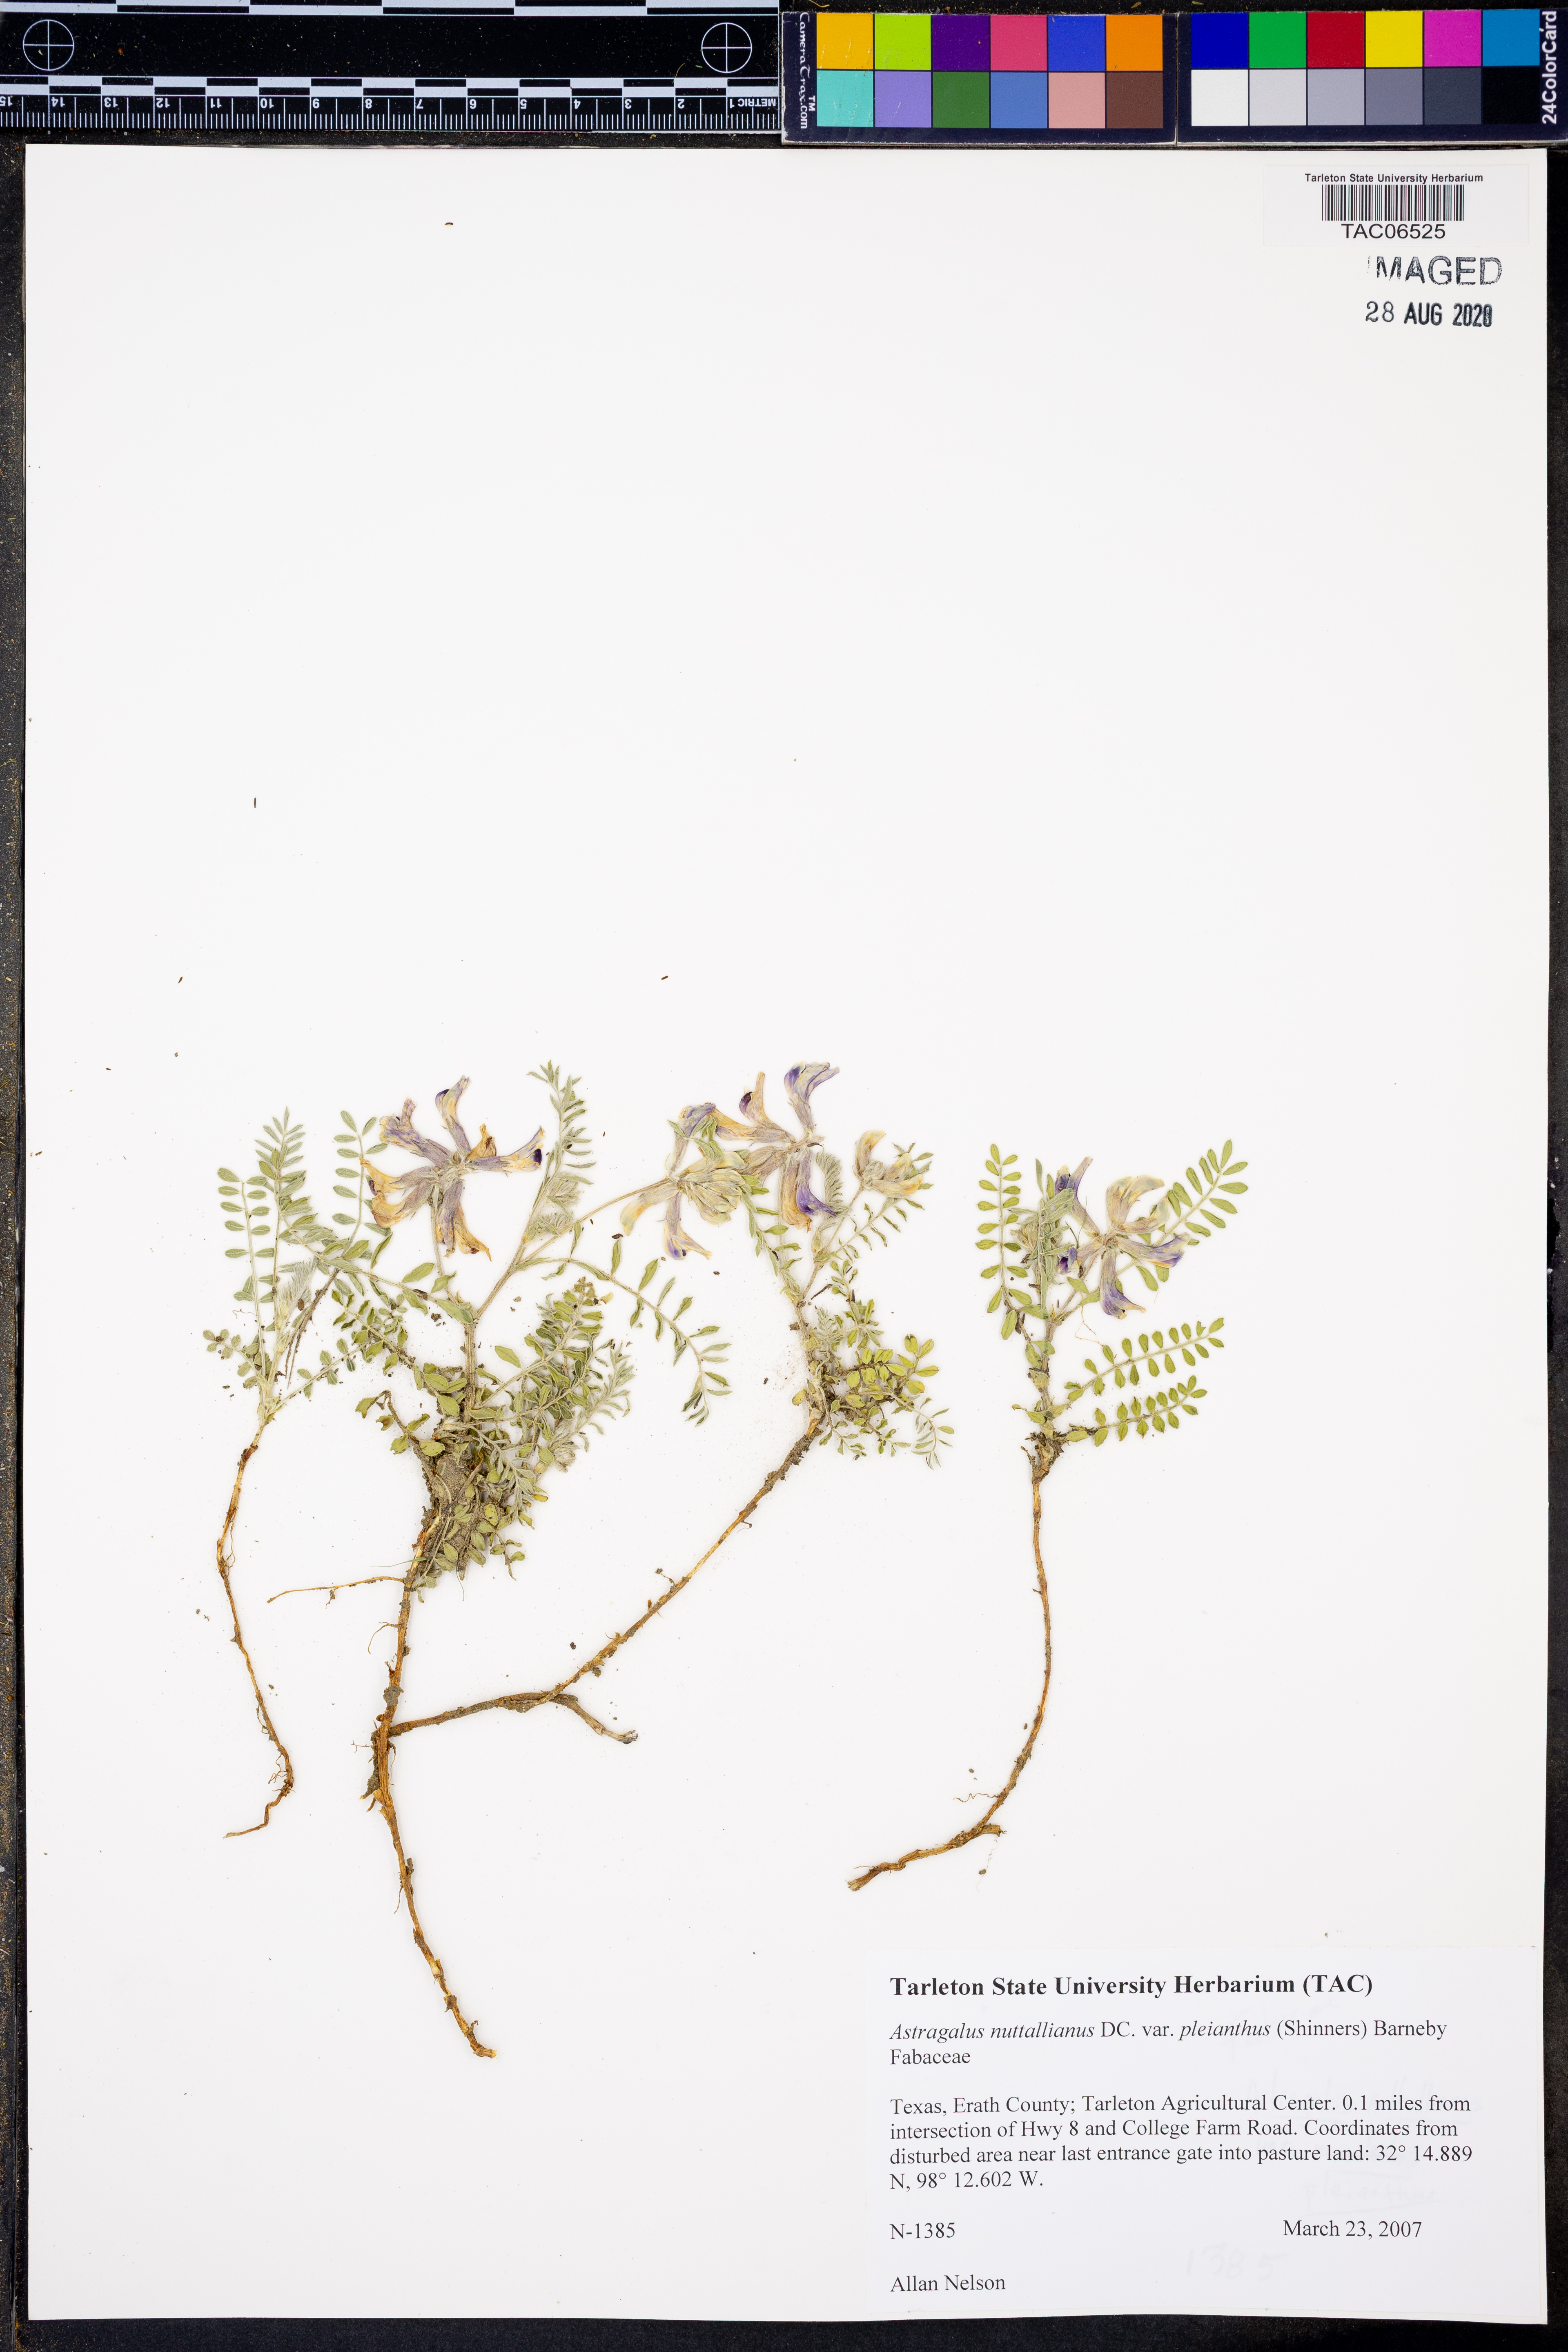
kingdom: Plantae
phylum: Tracheophyta
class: Magnoliopsida
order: Fabales
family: Fabaceae
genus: Astragalus
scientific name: Astragalus pleianthus
